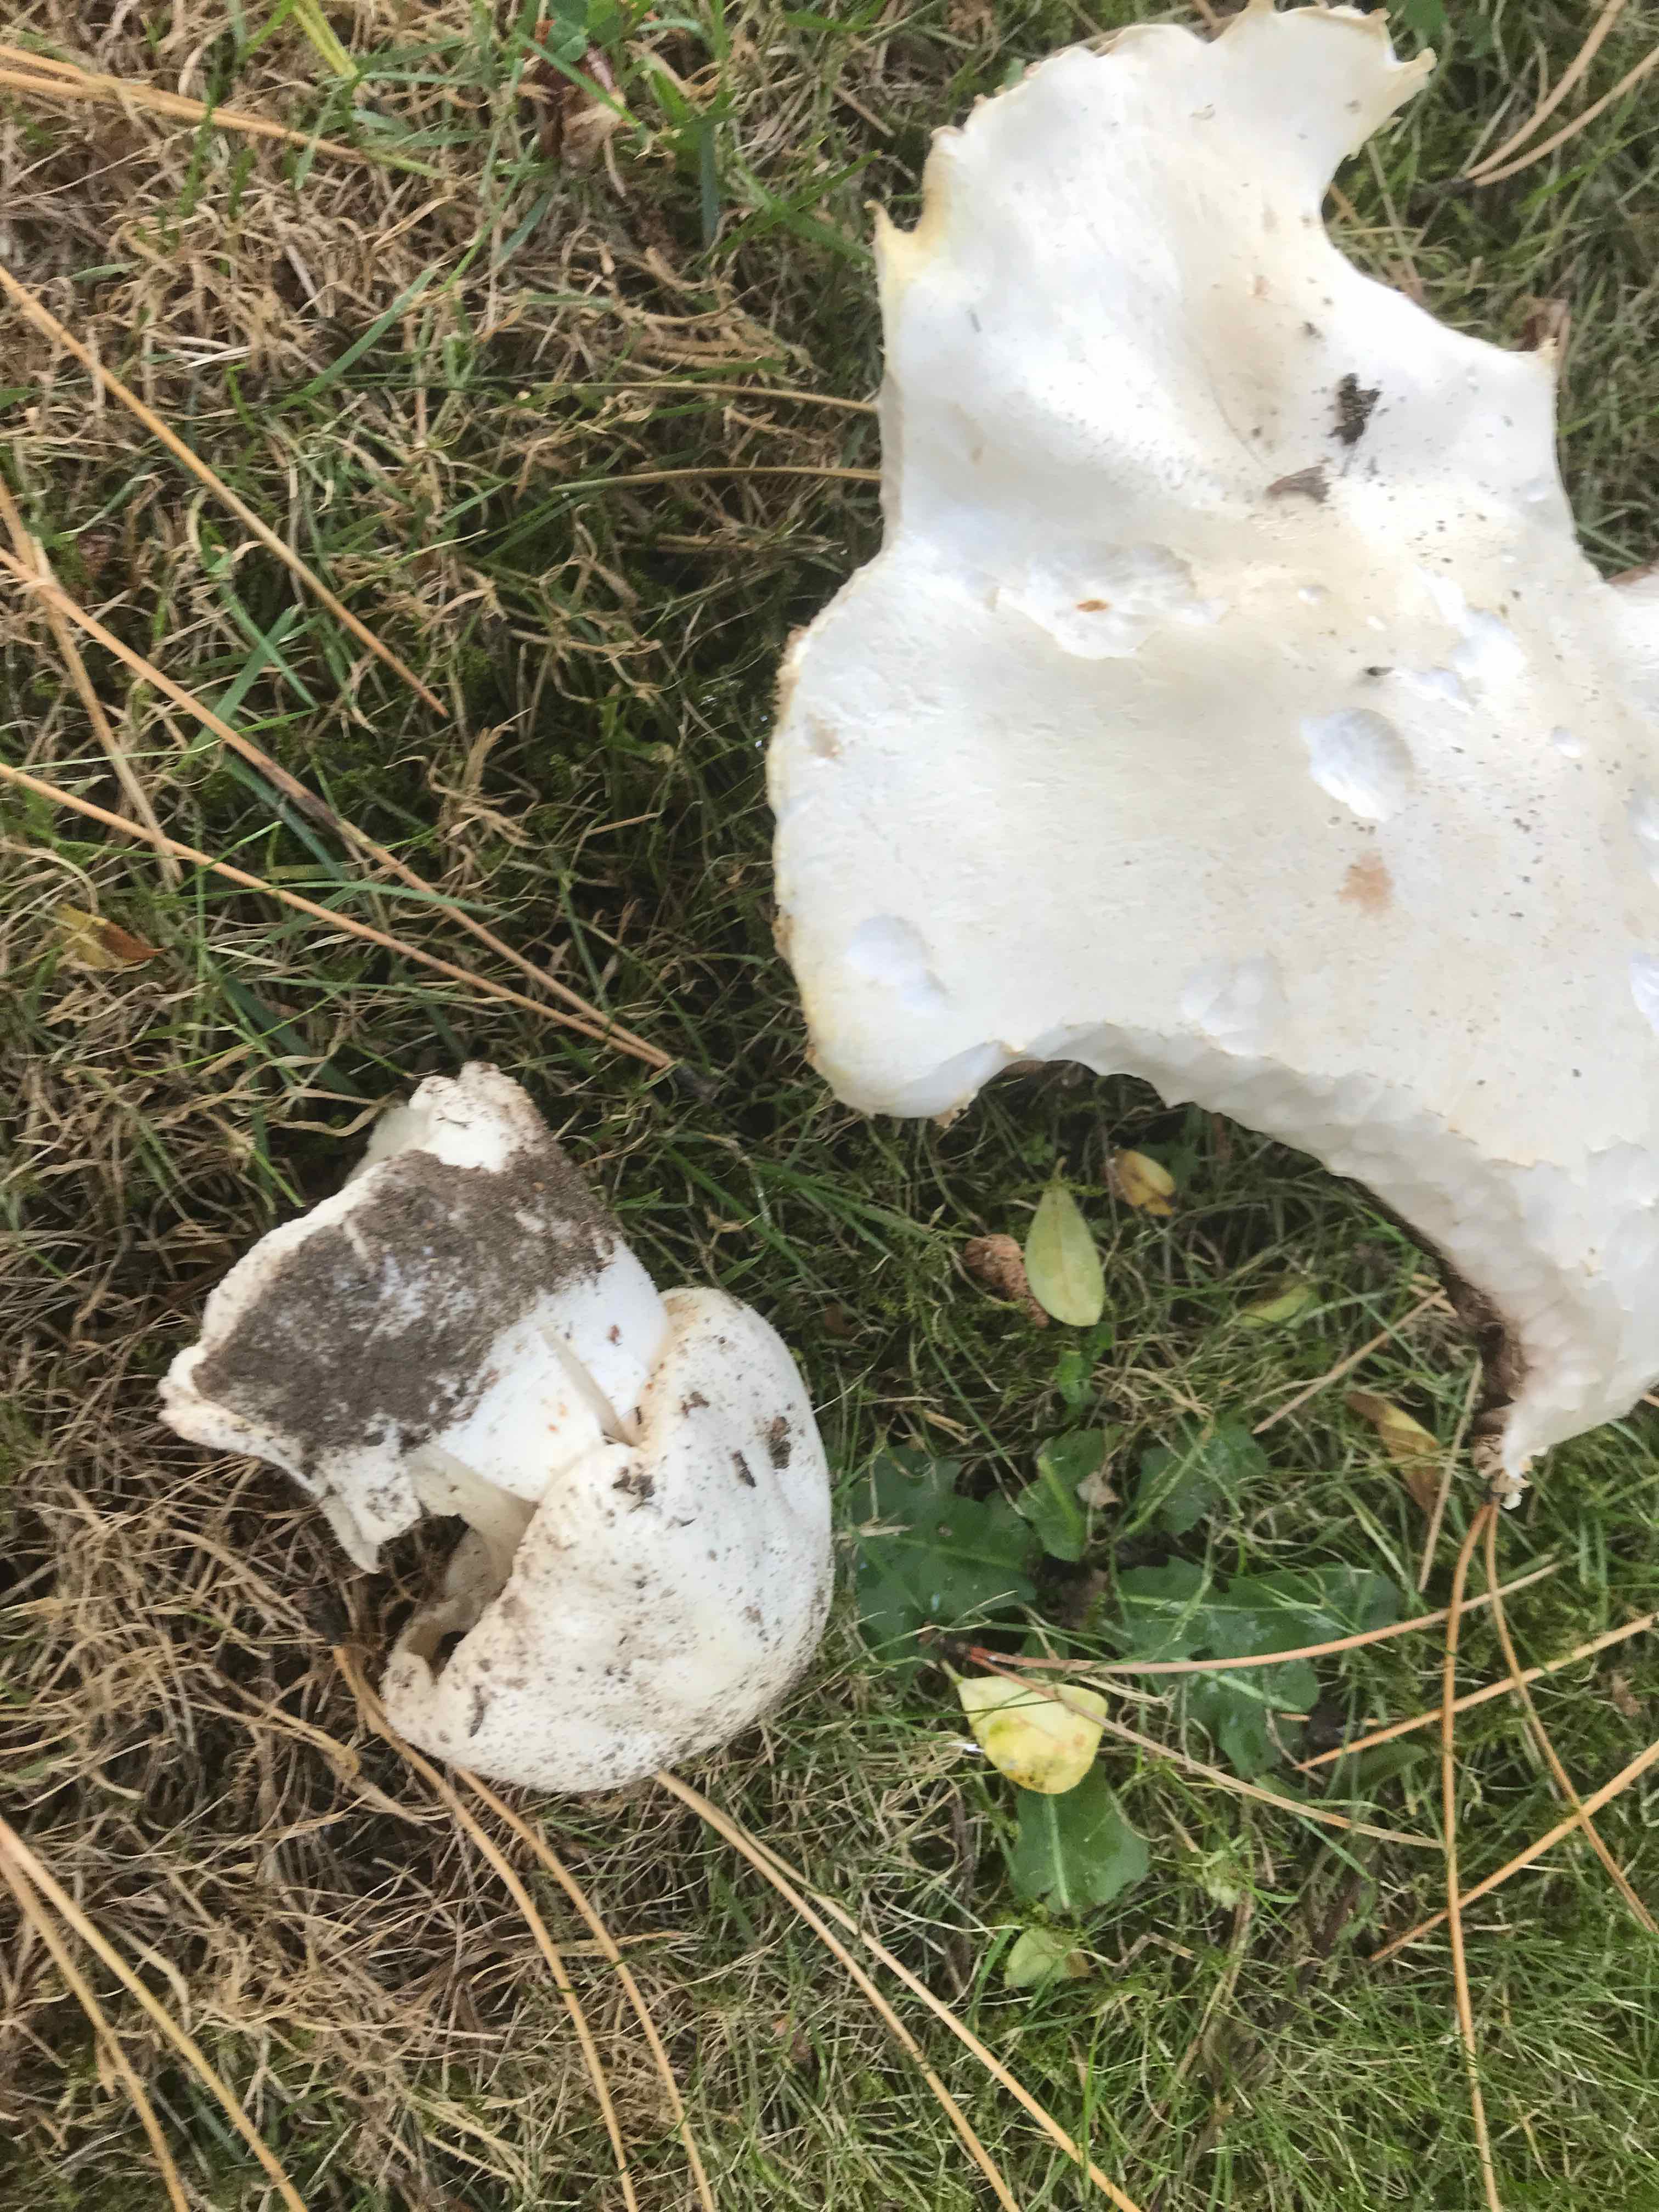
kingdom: Fungi
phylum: Basidiomycota
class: Agaricomycetes
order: Agaricales
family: Agaricaceae
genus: Agaricus
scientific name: Agaricus arvensis
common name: ager-champignon
